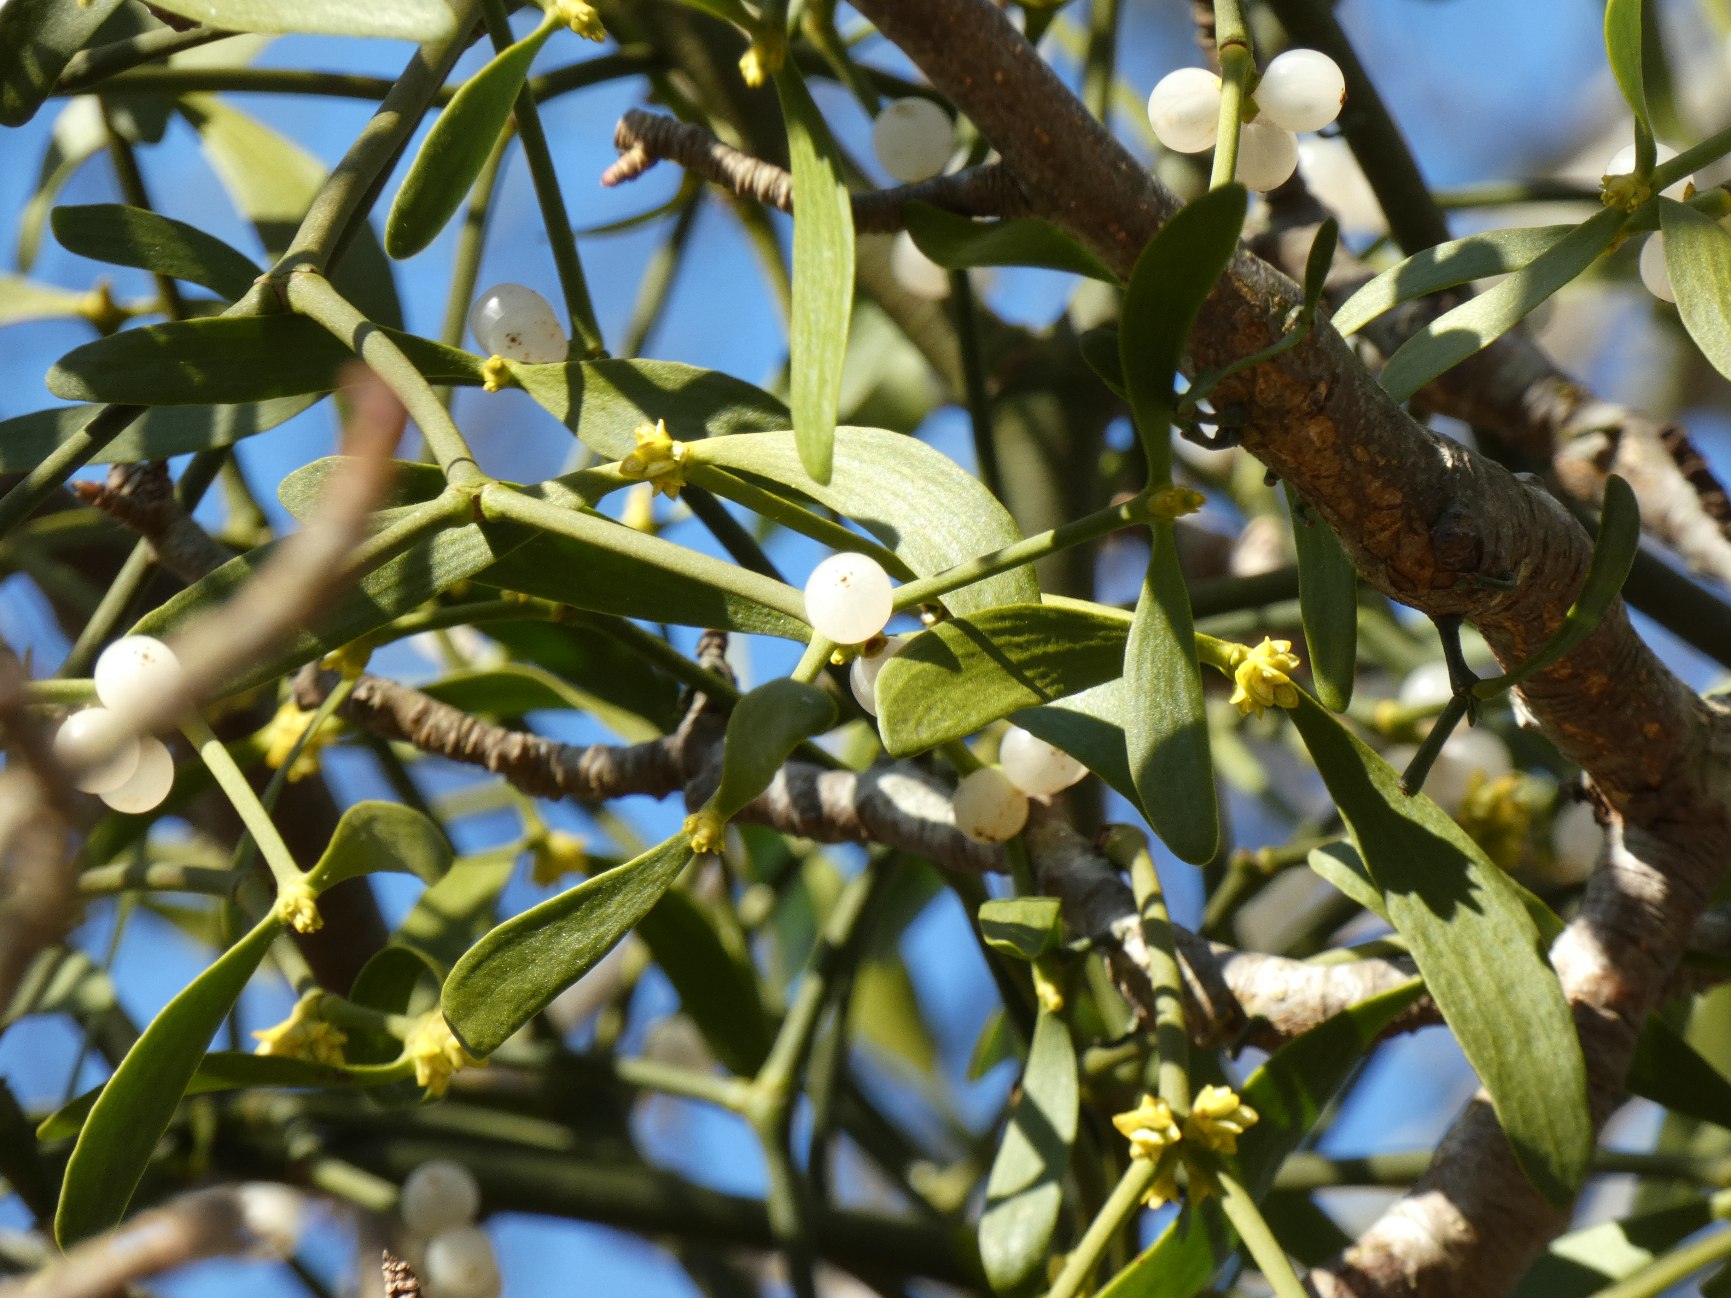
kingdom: Plantae
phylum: Tracheophyta
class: Magnoliopsida
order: Santalales
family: Viscaceae
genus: Viscum
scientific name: Viscum album
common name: Mistelten
